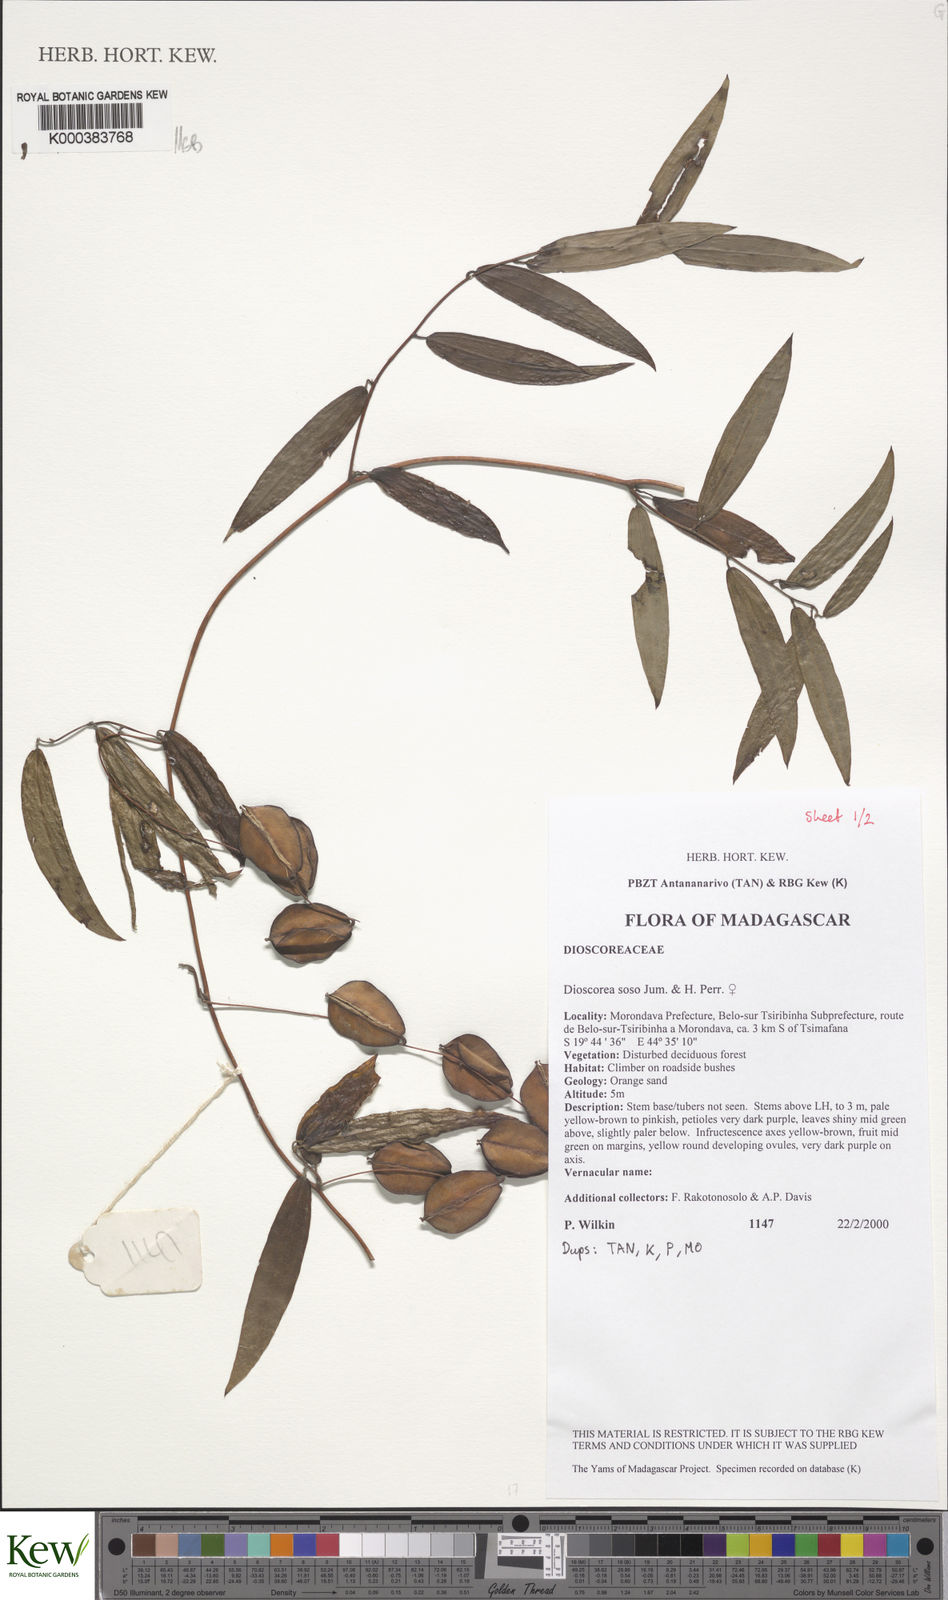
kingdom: Plantae
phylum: Tracheophyta
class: Liliopsida
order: Dioscoreales
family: Dioscoreaceae
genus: Dioscorea
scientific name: Dioscorea
